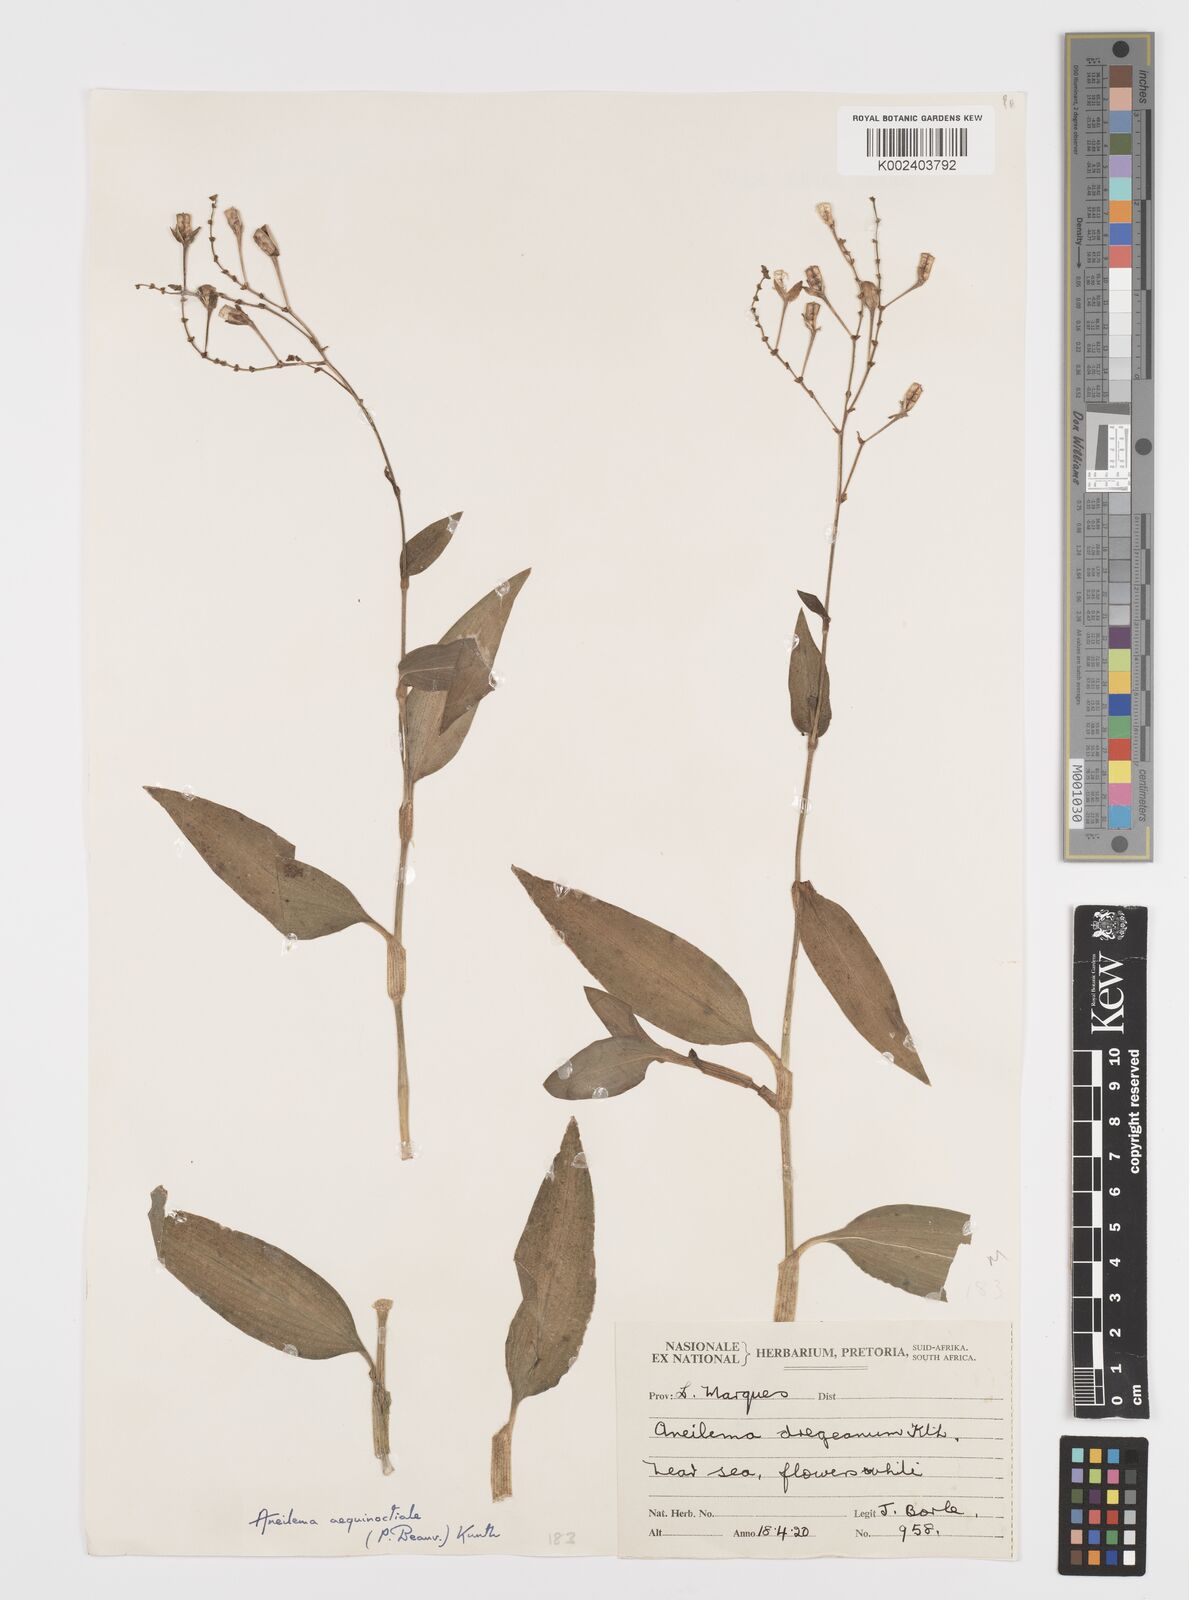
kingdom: Plantae
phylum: Tracheophyta
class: Liliopsida
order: Commelinales
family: Commelinaceae
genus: Aneilema
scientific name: Aneilema aequinoctiale
